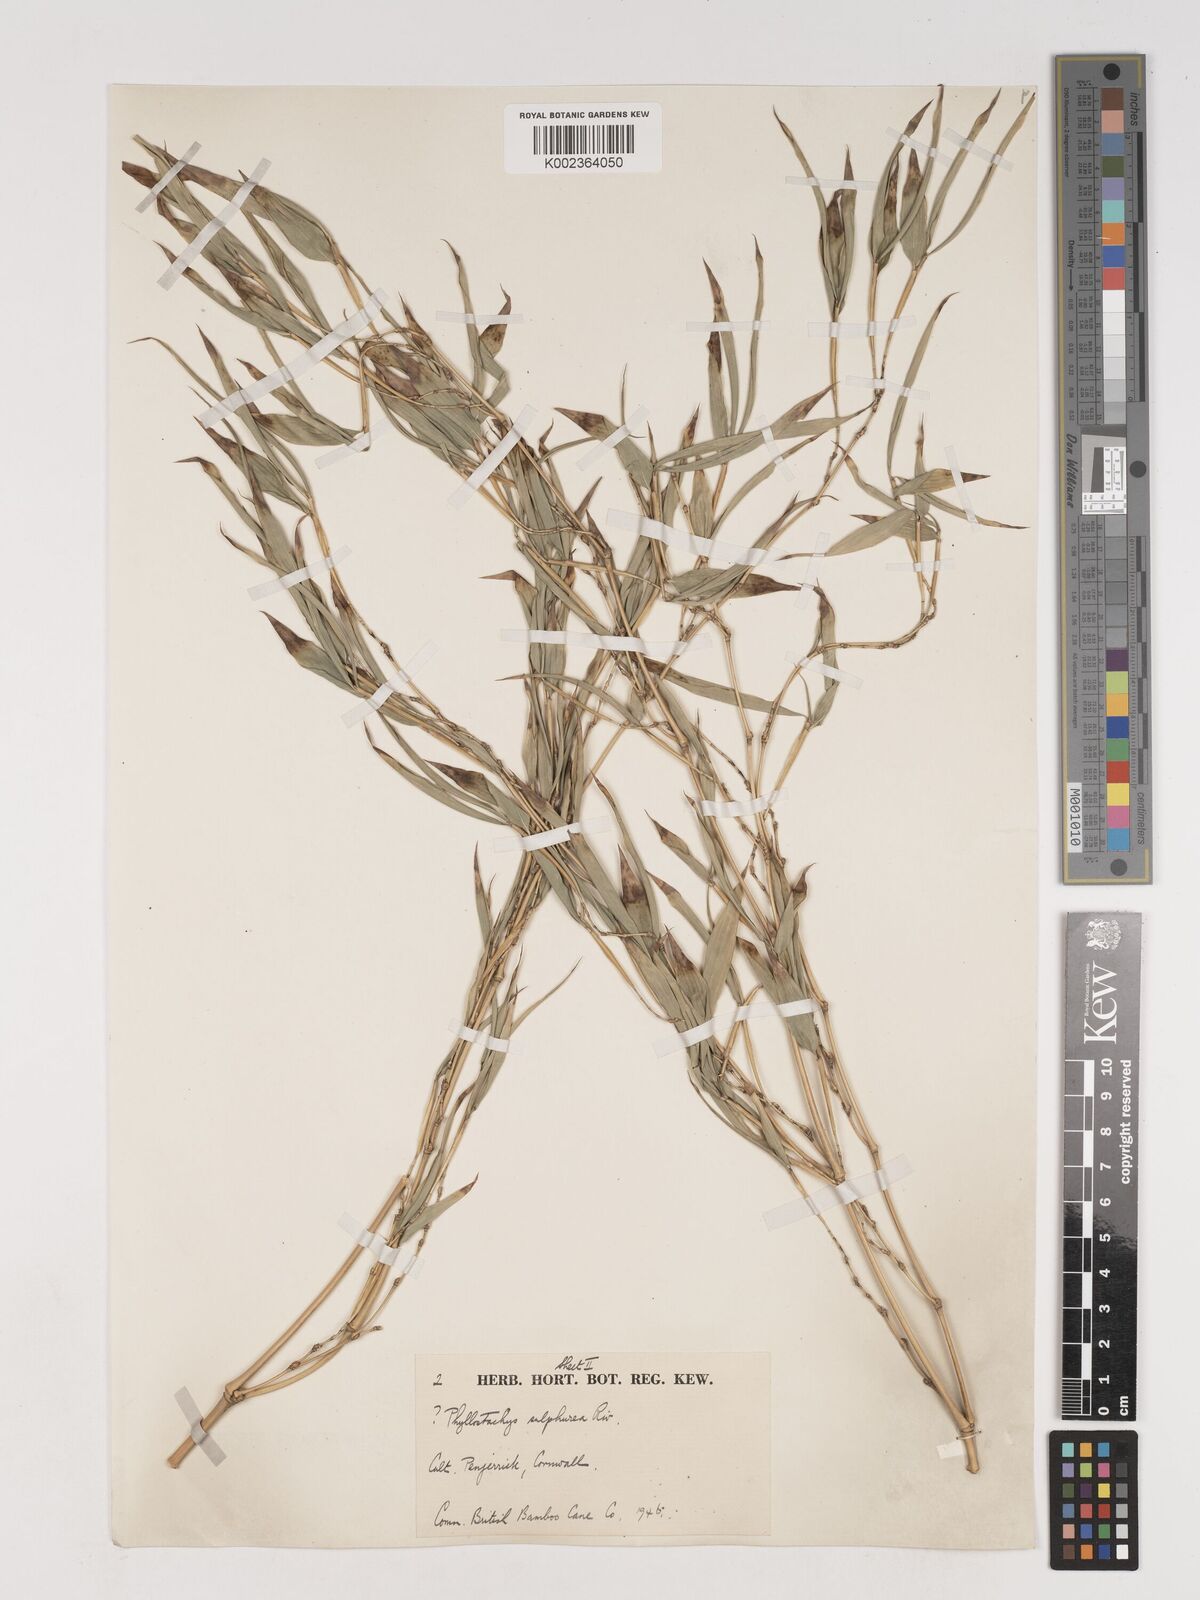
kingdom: Plantae
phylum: Tracheophyta
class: Liliopsida
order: Poales
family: Poaceae
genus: Phyllostachys
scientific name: Phyllostachys sulphurea
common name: Sulphur bamboo
